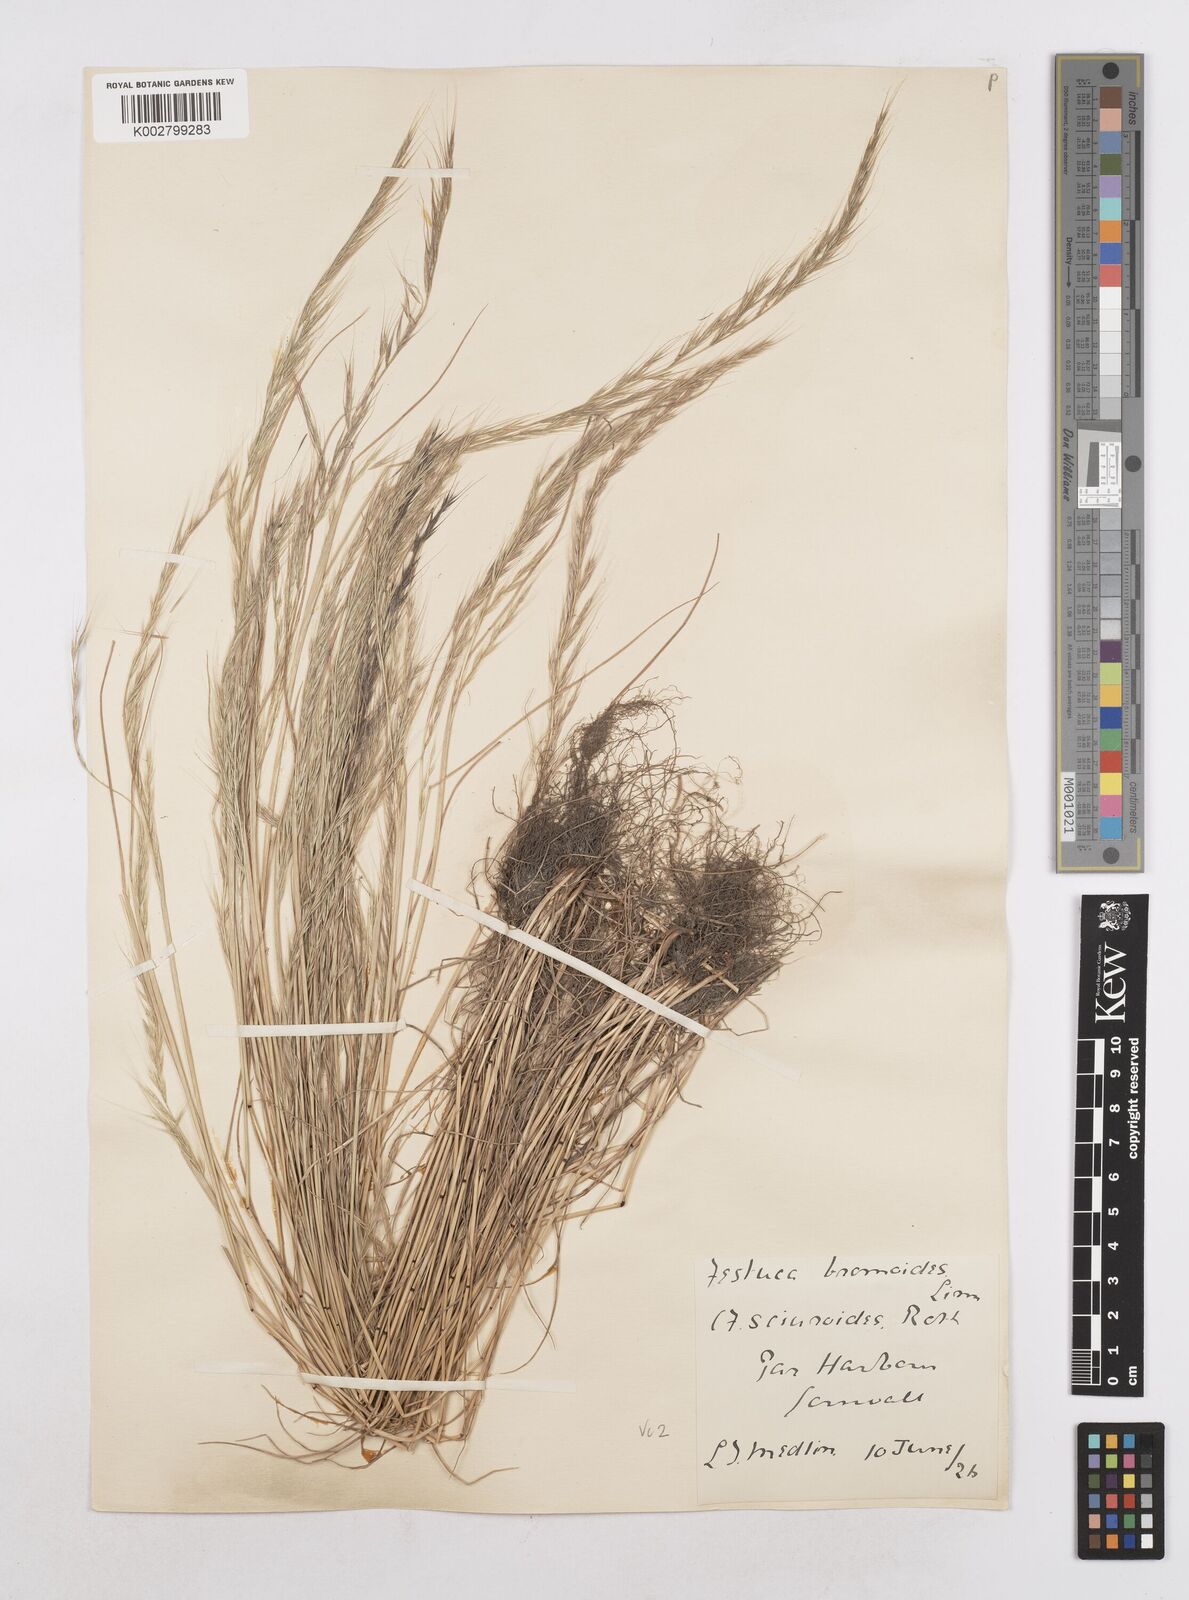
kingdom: Plantae
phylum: Tracheophyta
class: Liliopsida
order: Poales
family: Poaceae
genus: Festuca
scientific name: Festuca myuros
